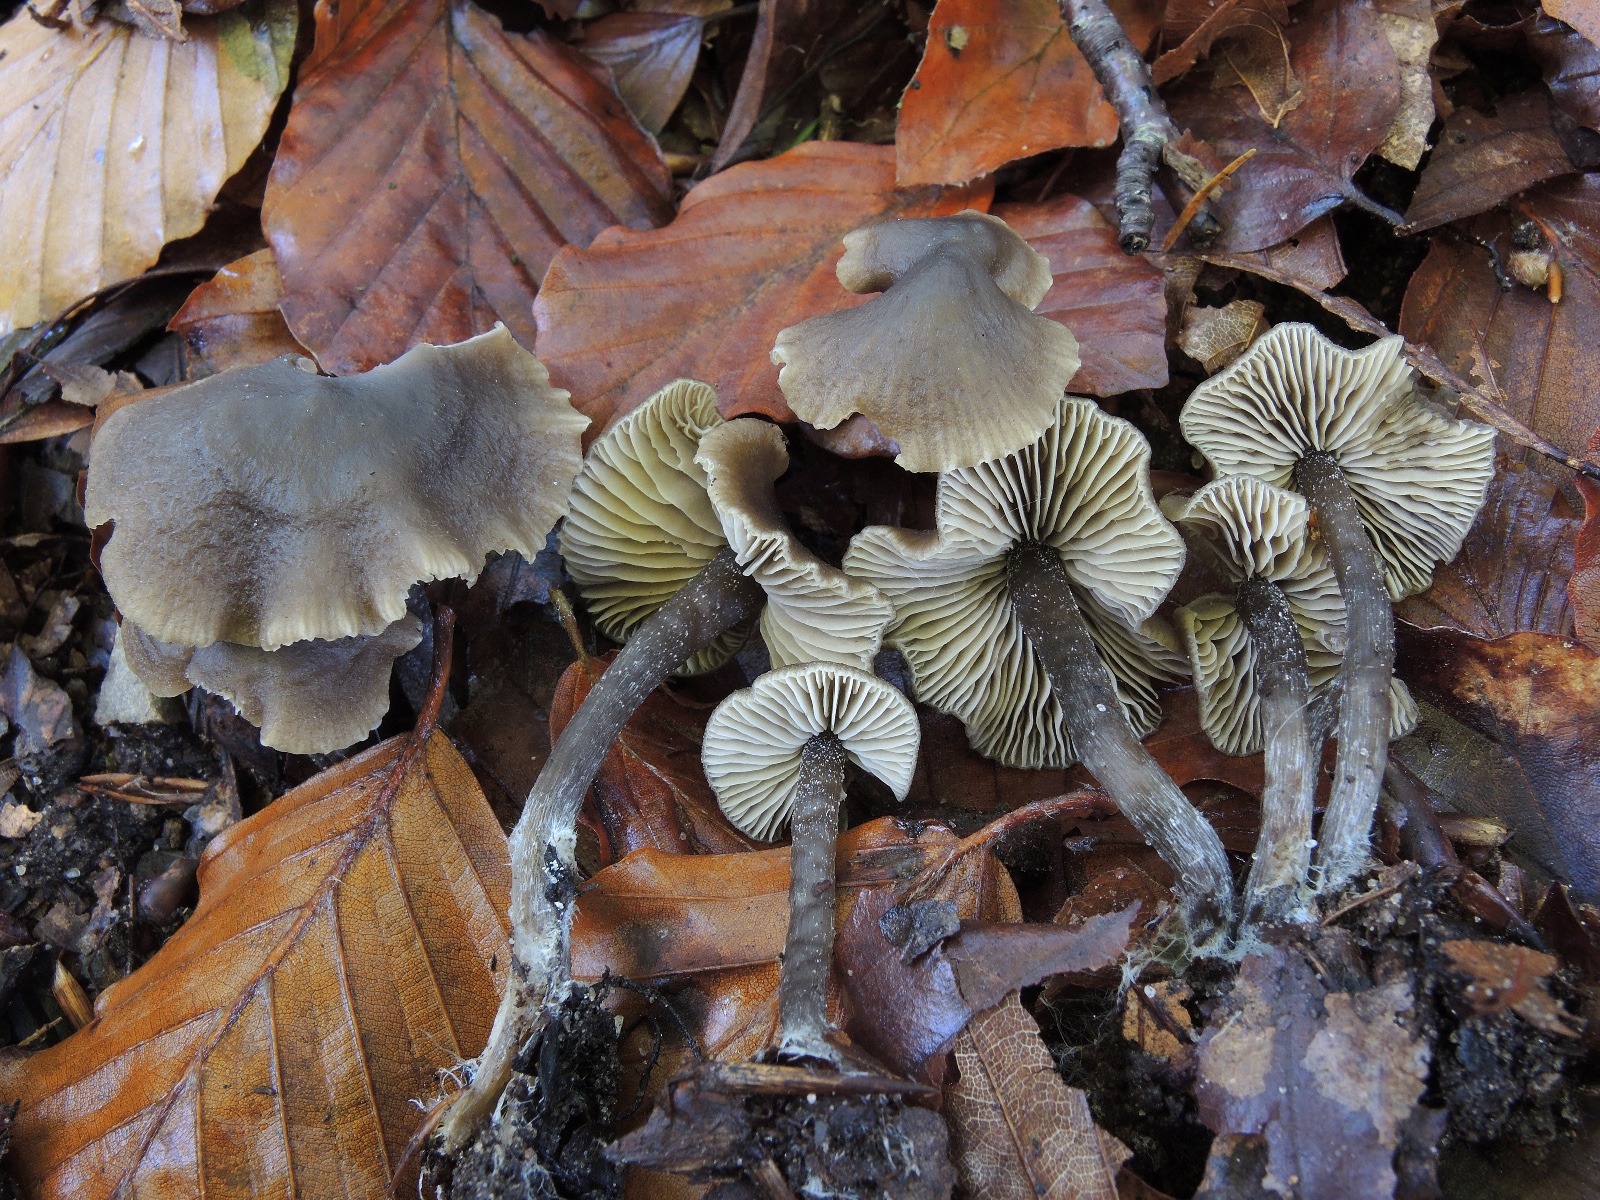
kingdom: Fungi
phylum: Basidiomycota
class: Agaricomycetes
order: Agaricales
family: Lyophyllaceae
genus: Myochromella
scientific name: Myochromella boudieri
